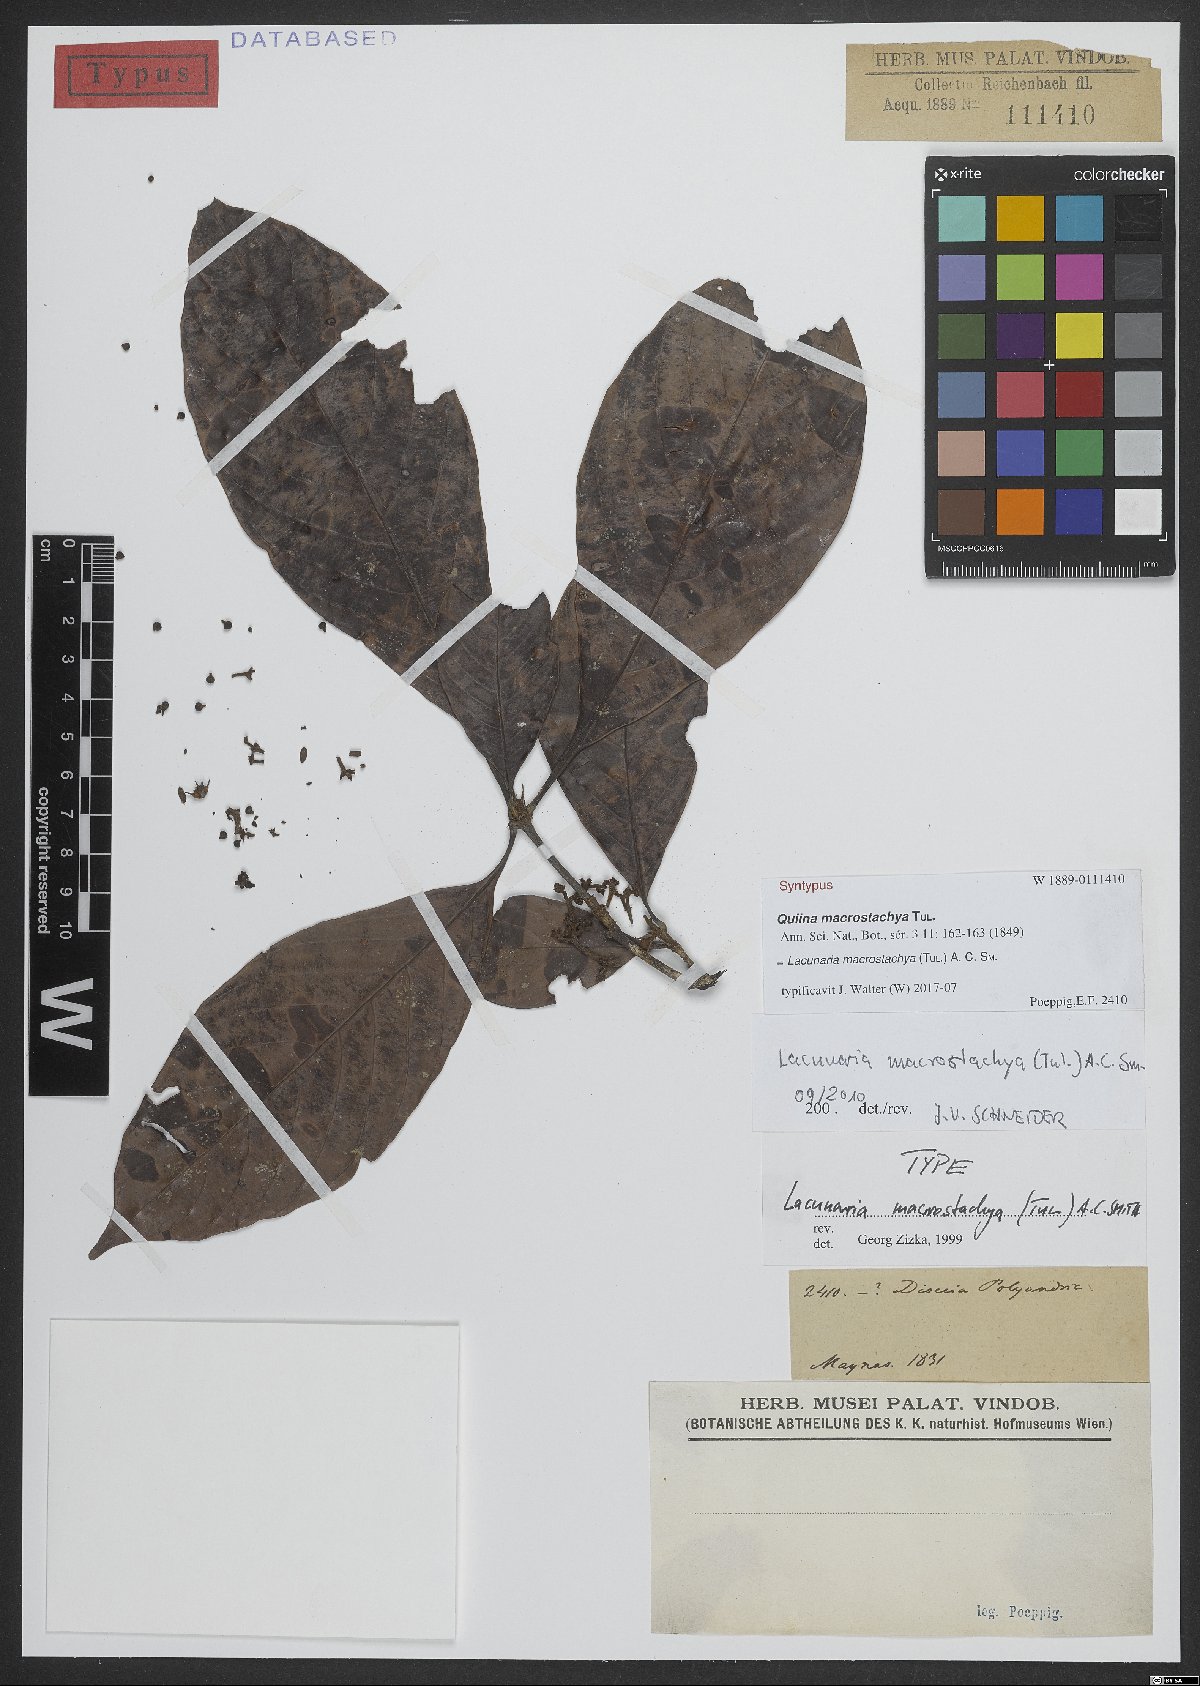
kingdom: Plantae
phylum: Tracheophyta
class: Magnoliopsida
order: Malpighiales
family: Quiinaceae
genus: Lacunaria
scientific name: Lacunaria macrostachya
